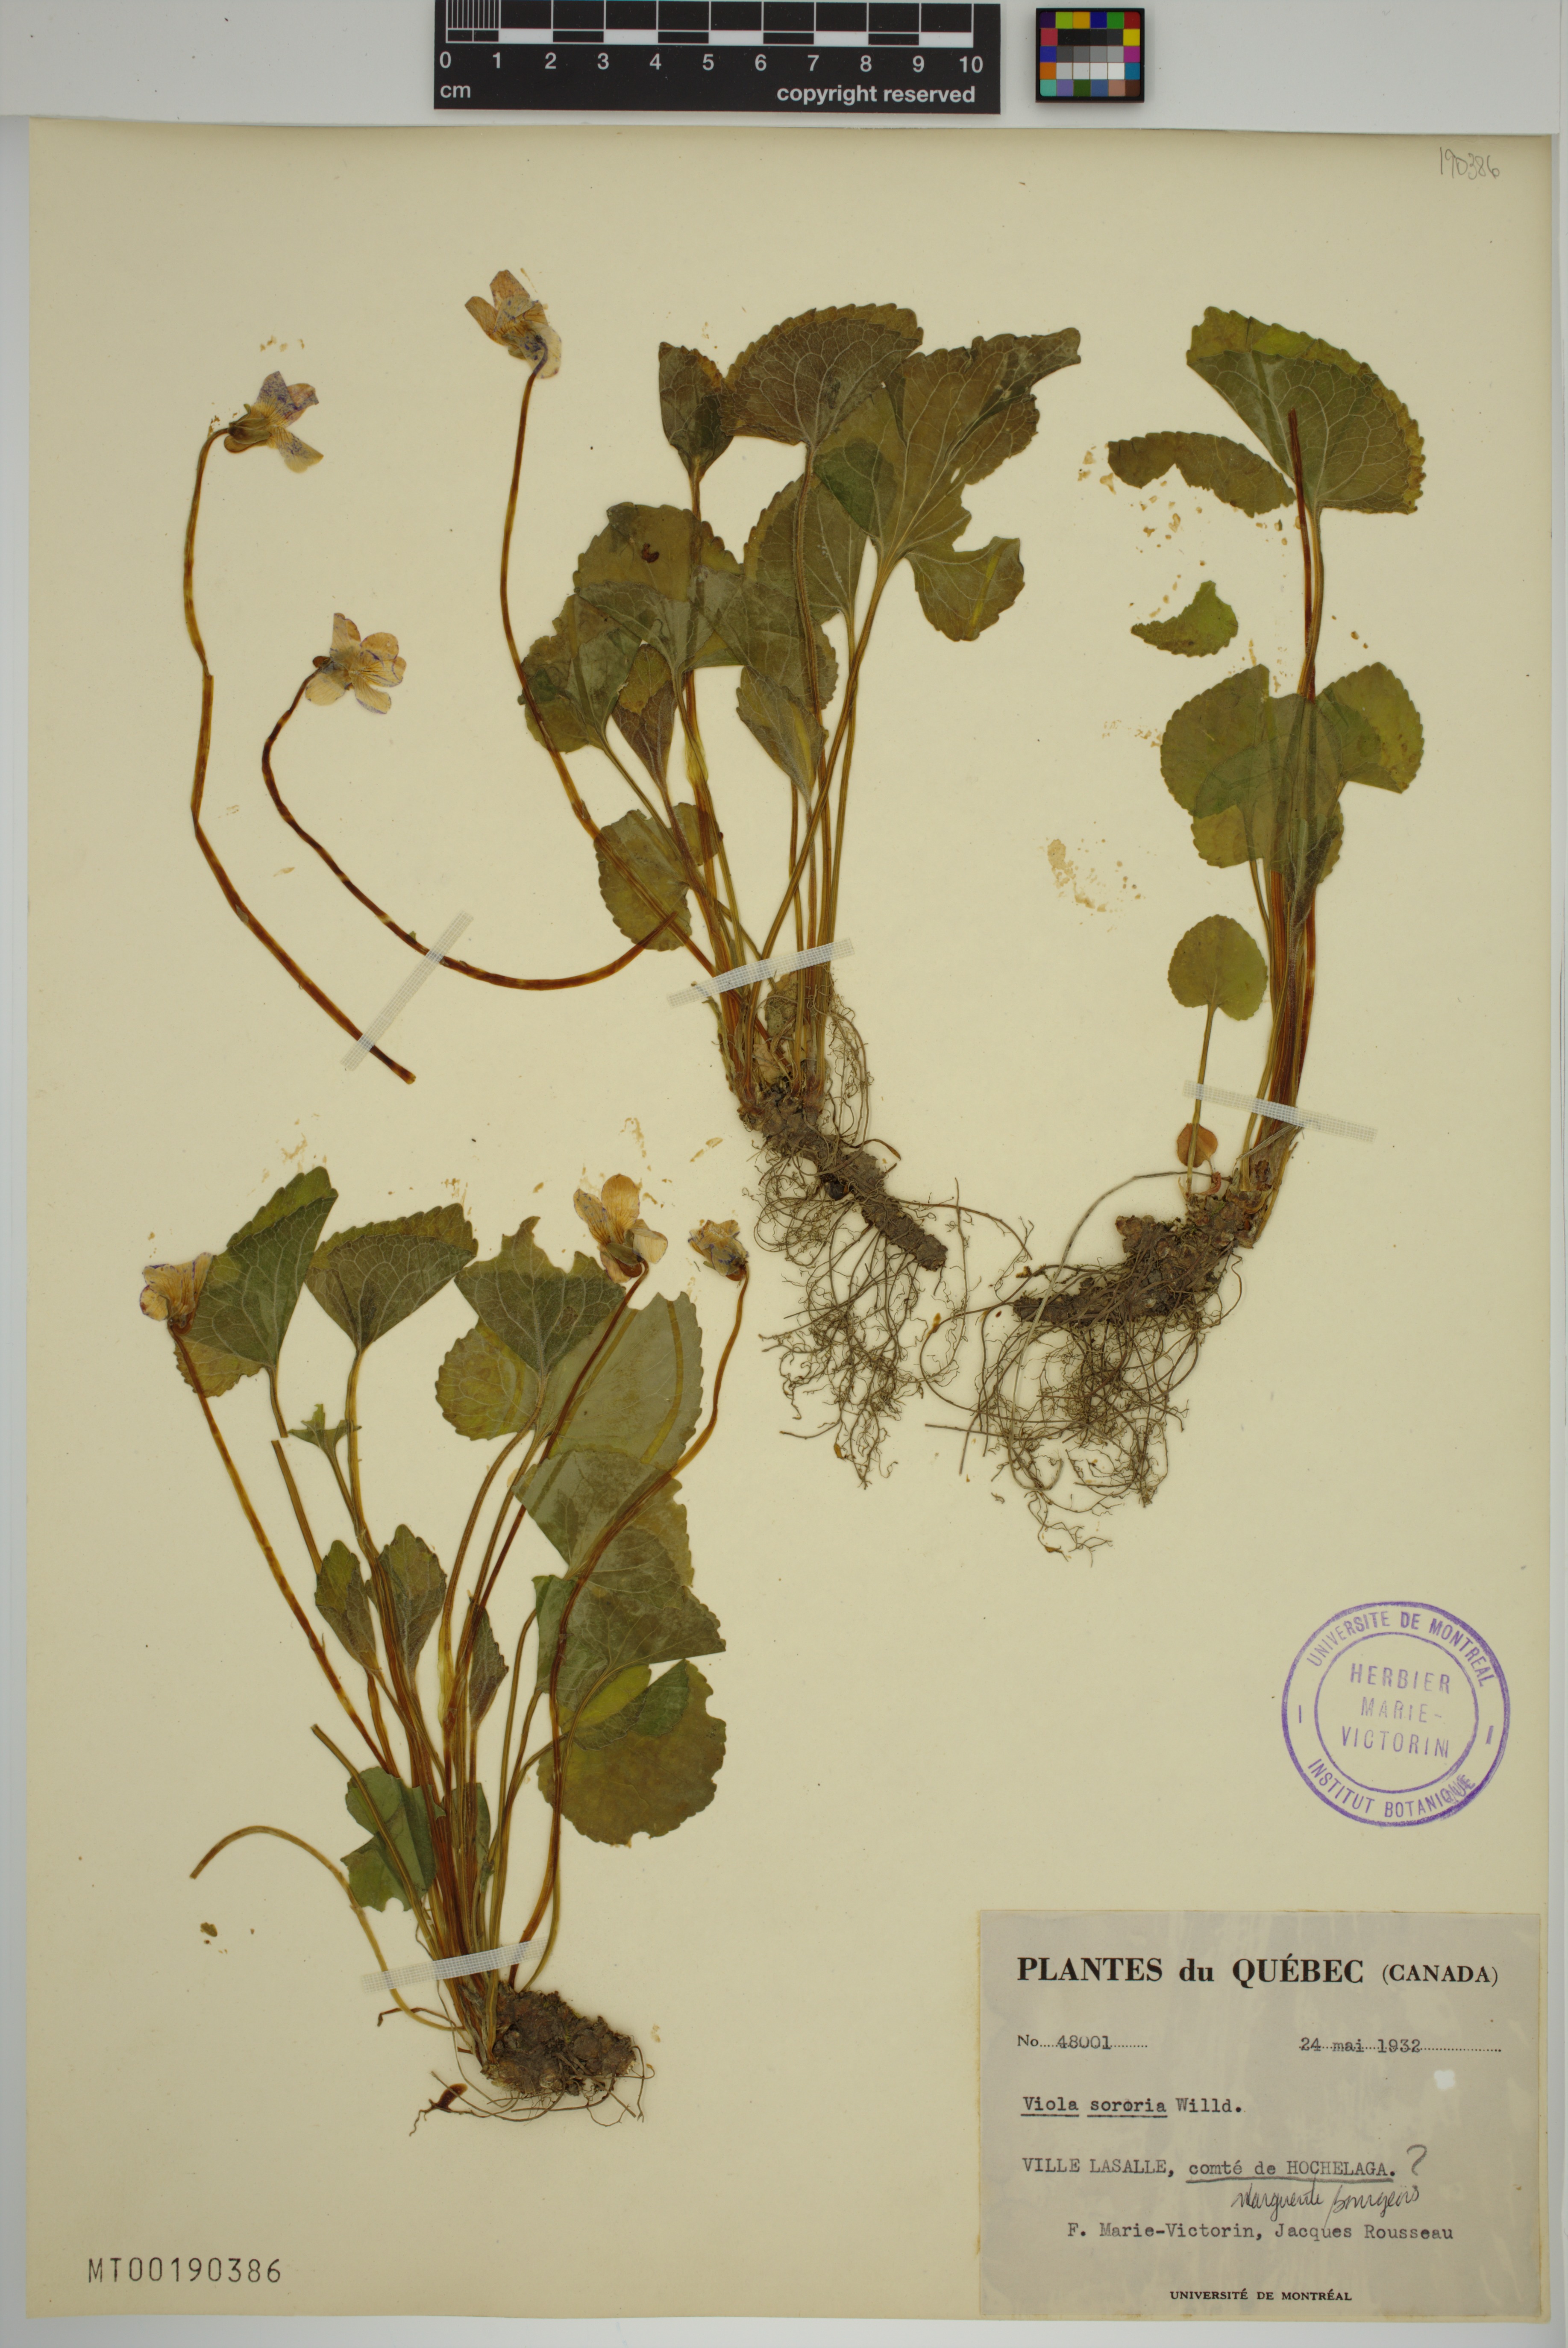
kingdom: Plantae
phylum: Tracheophyta
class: Magnoliopsida
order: Malpighiales
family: Violaceae
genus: Viola
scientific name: Viola sororia
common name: Dooryard violet
